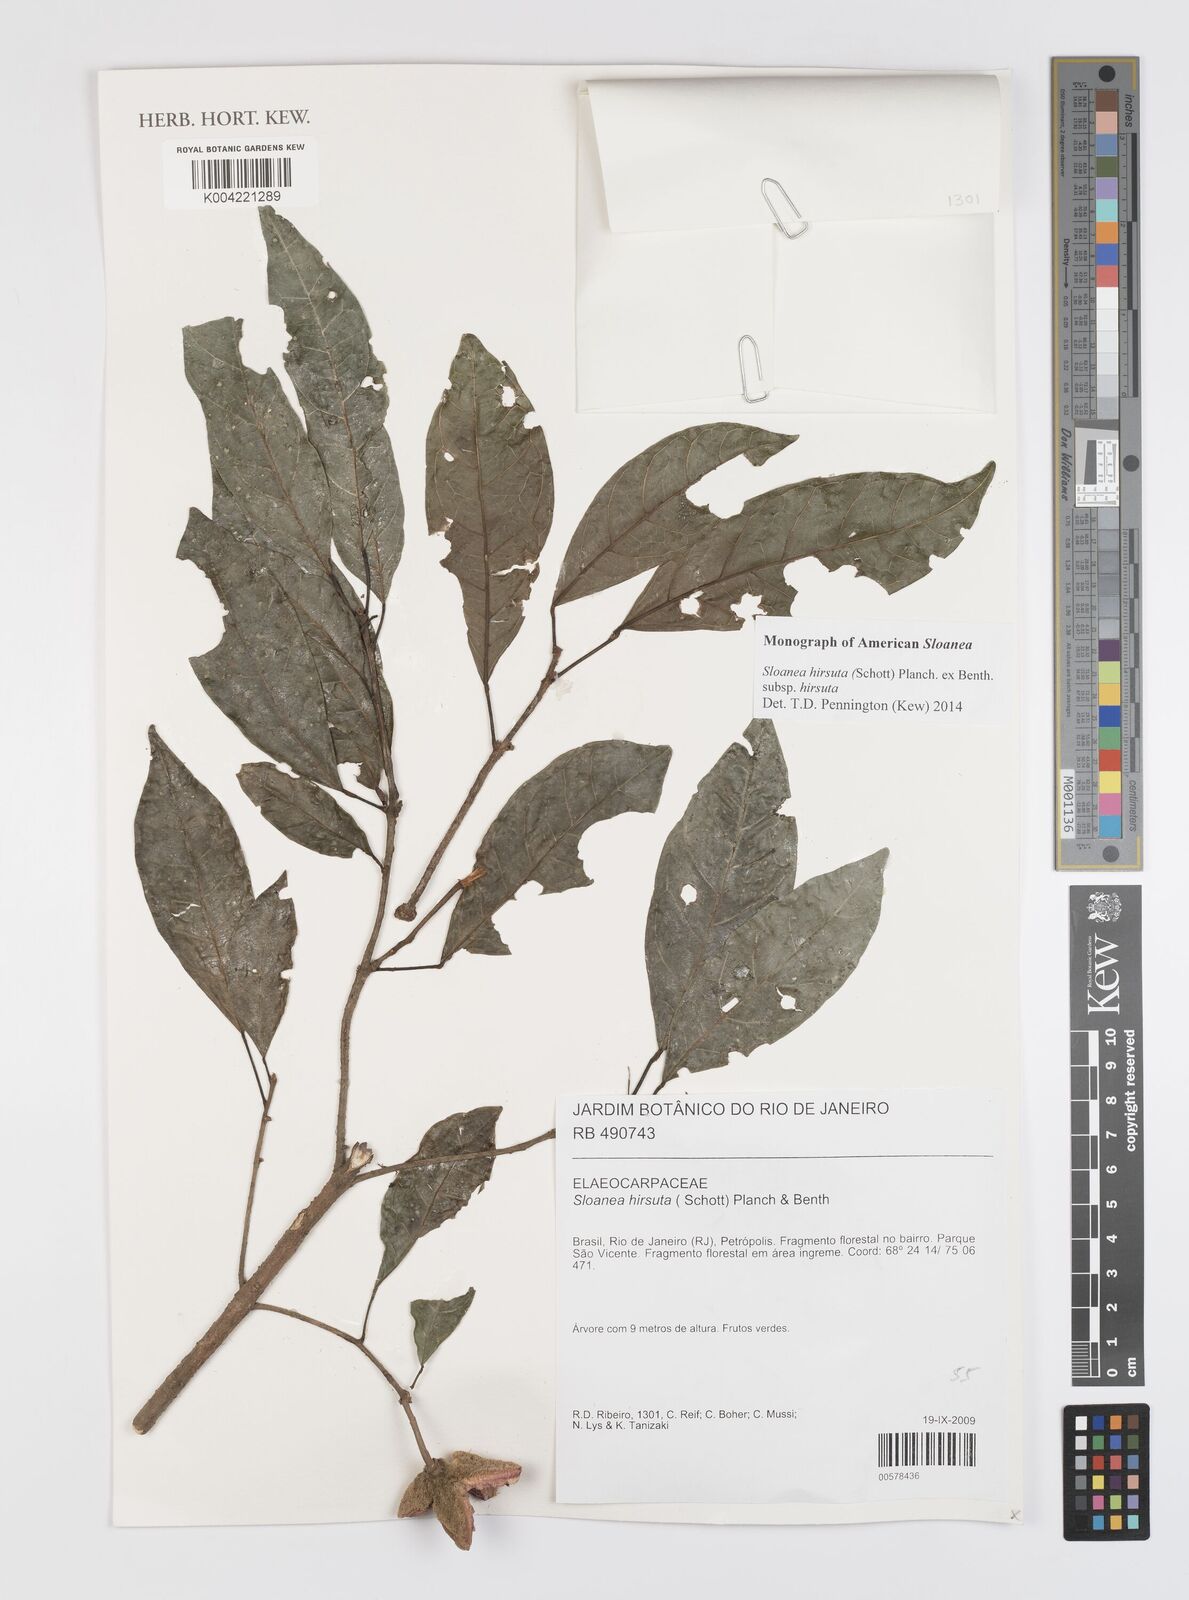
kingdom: Plantae
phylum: Tracheophyta
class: Magnoliopsida
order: Oxalidales
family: Elaeocarpaceae
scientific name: Elaeocarpaceae
